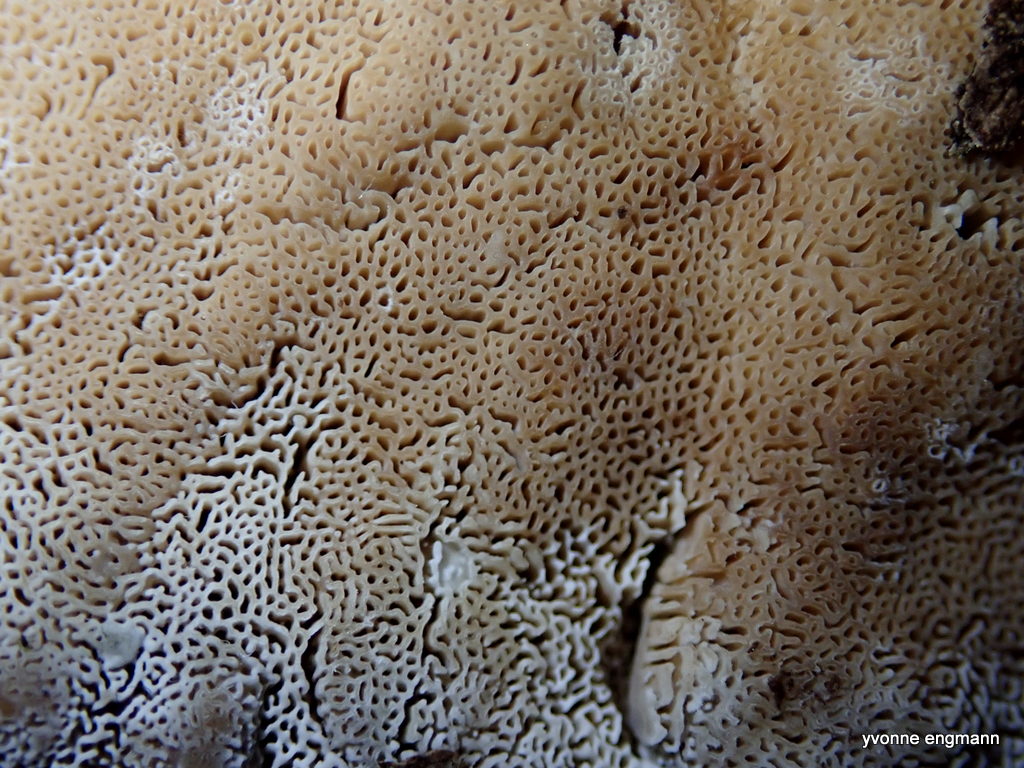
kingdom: Fungi
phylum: Basidiomycota
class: Agaricomycetes
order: Polyporales
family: Phanerochaetaceae
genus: Bjerkandera
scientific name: Bjerkandera fumosa
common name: grågul sodporesvamp
